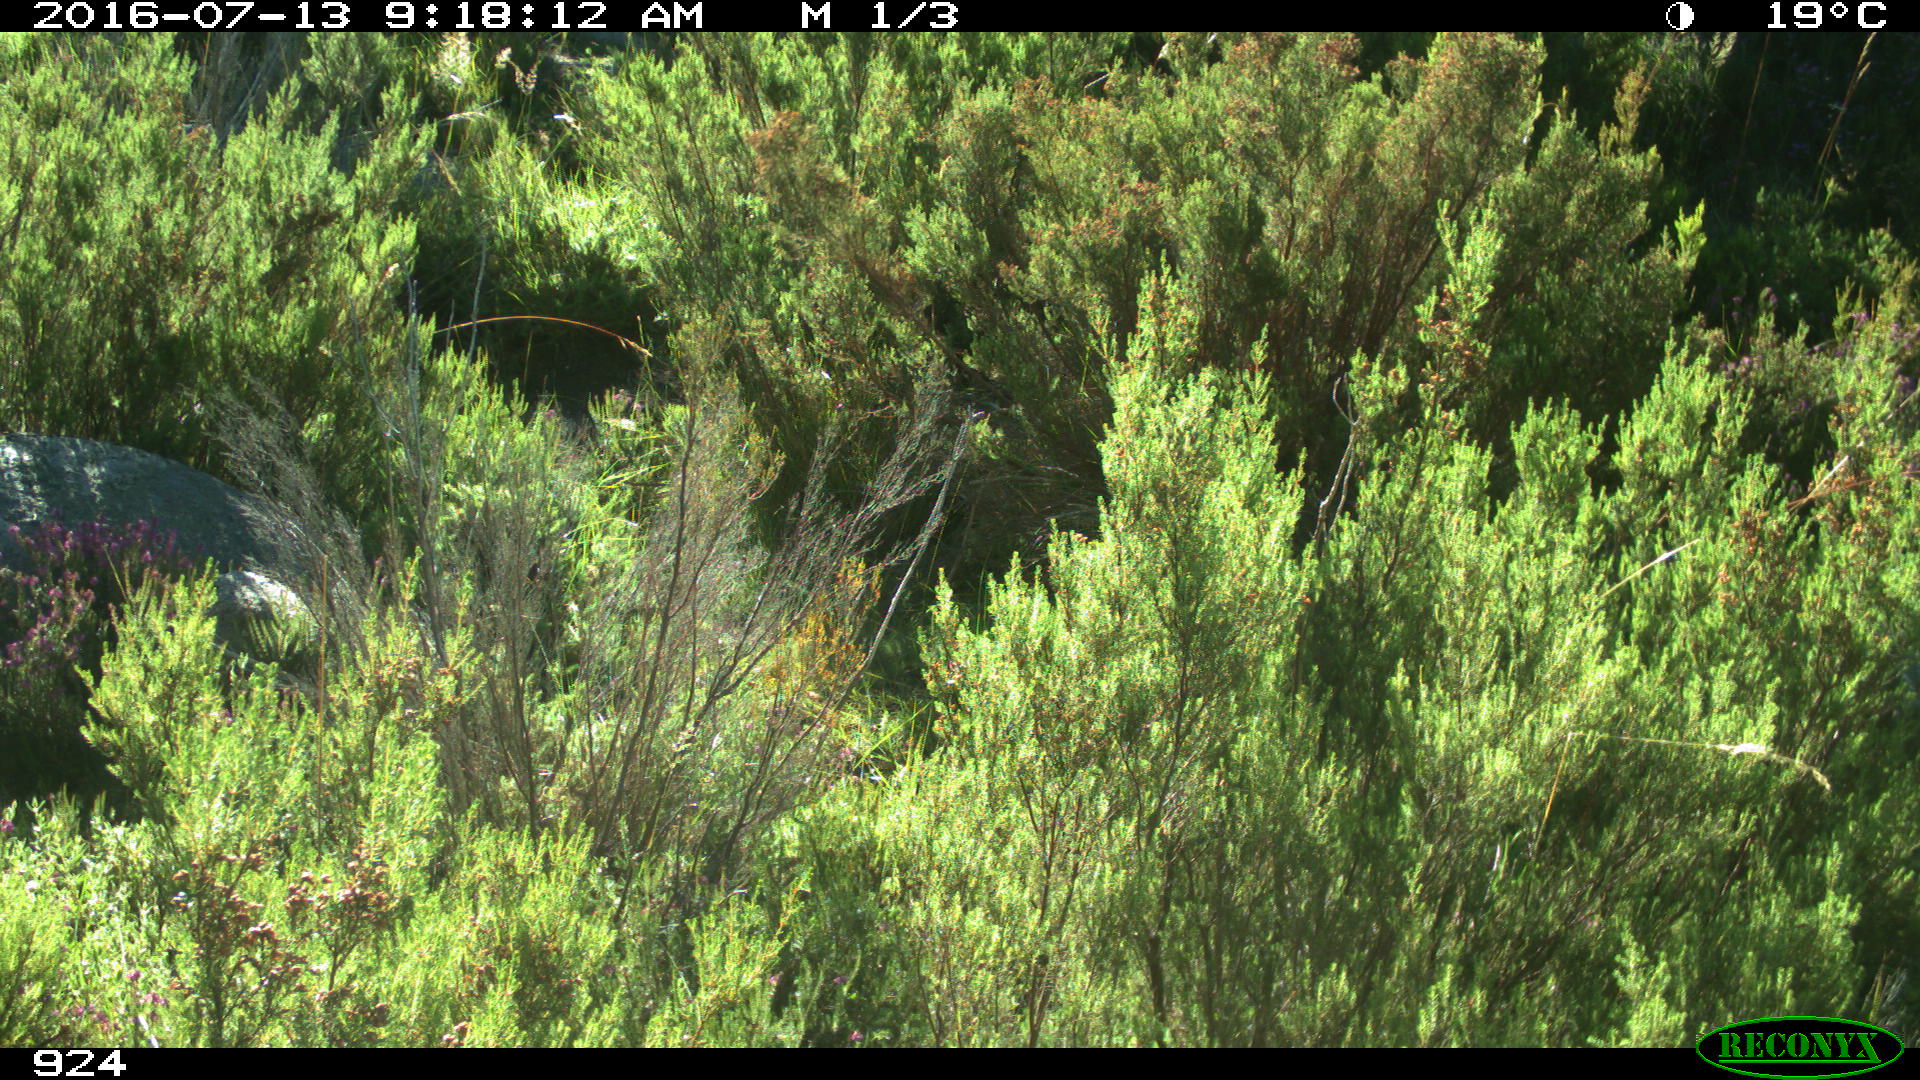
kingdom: Animalia
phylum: Chordata
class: Mammalia
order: Artiodactyla
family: Bovidae
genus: Bos
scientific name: Bos taurus
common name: Domesticated cattle
